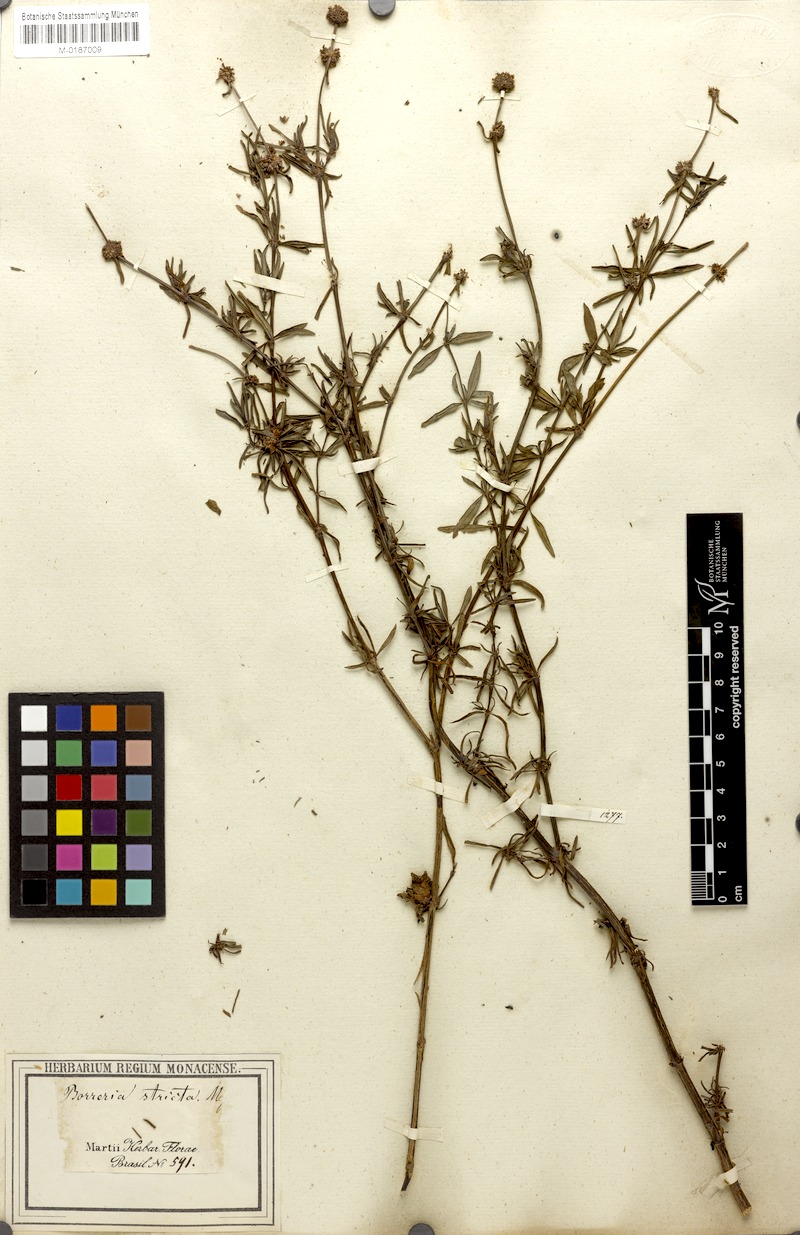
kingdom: Plantae
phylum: Tracheophyta
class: Magnoliopsida
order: Gentianales
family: Rubiaceae
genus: Spermacoce
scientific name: Spermacoce verticillata
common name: Shrubby false buttonweed
